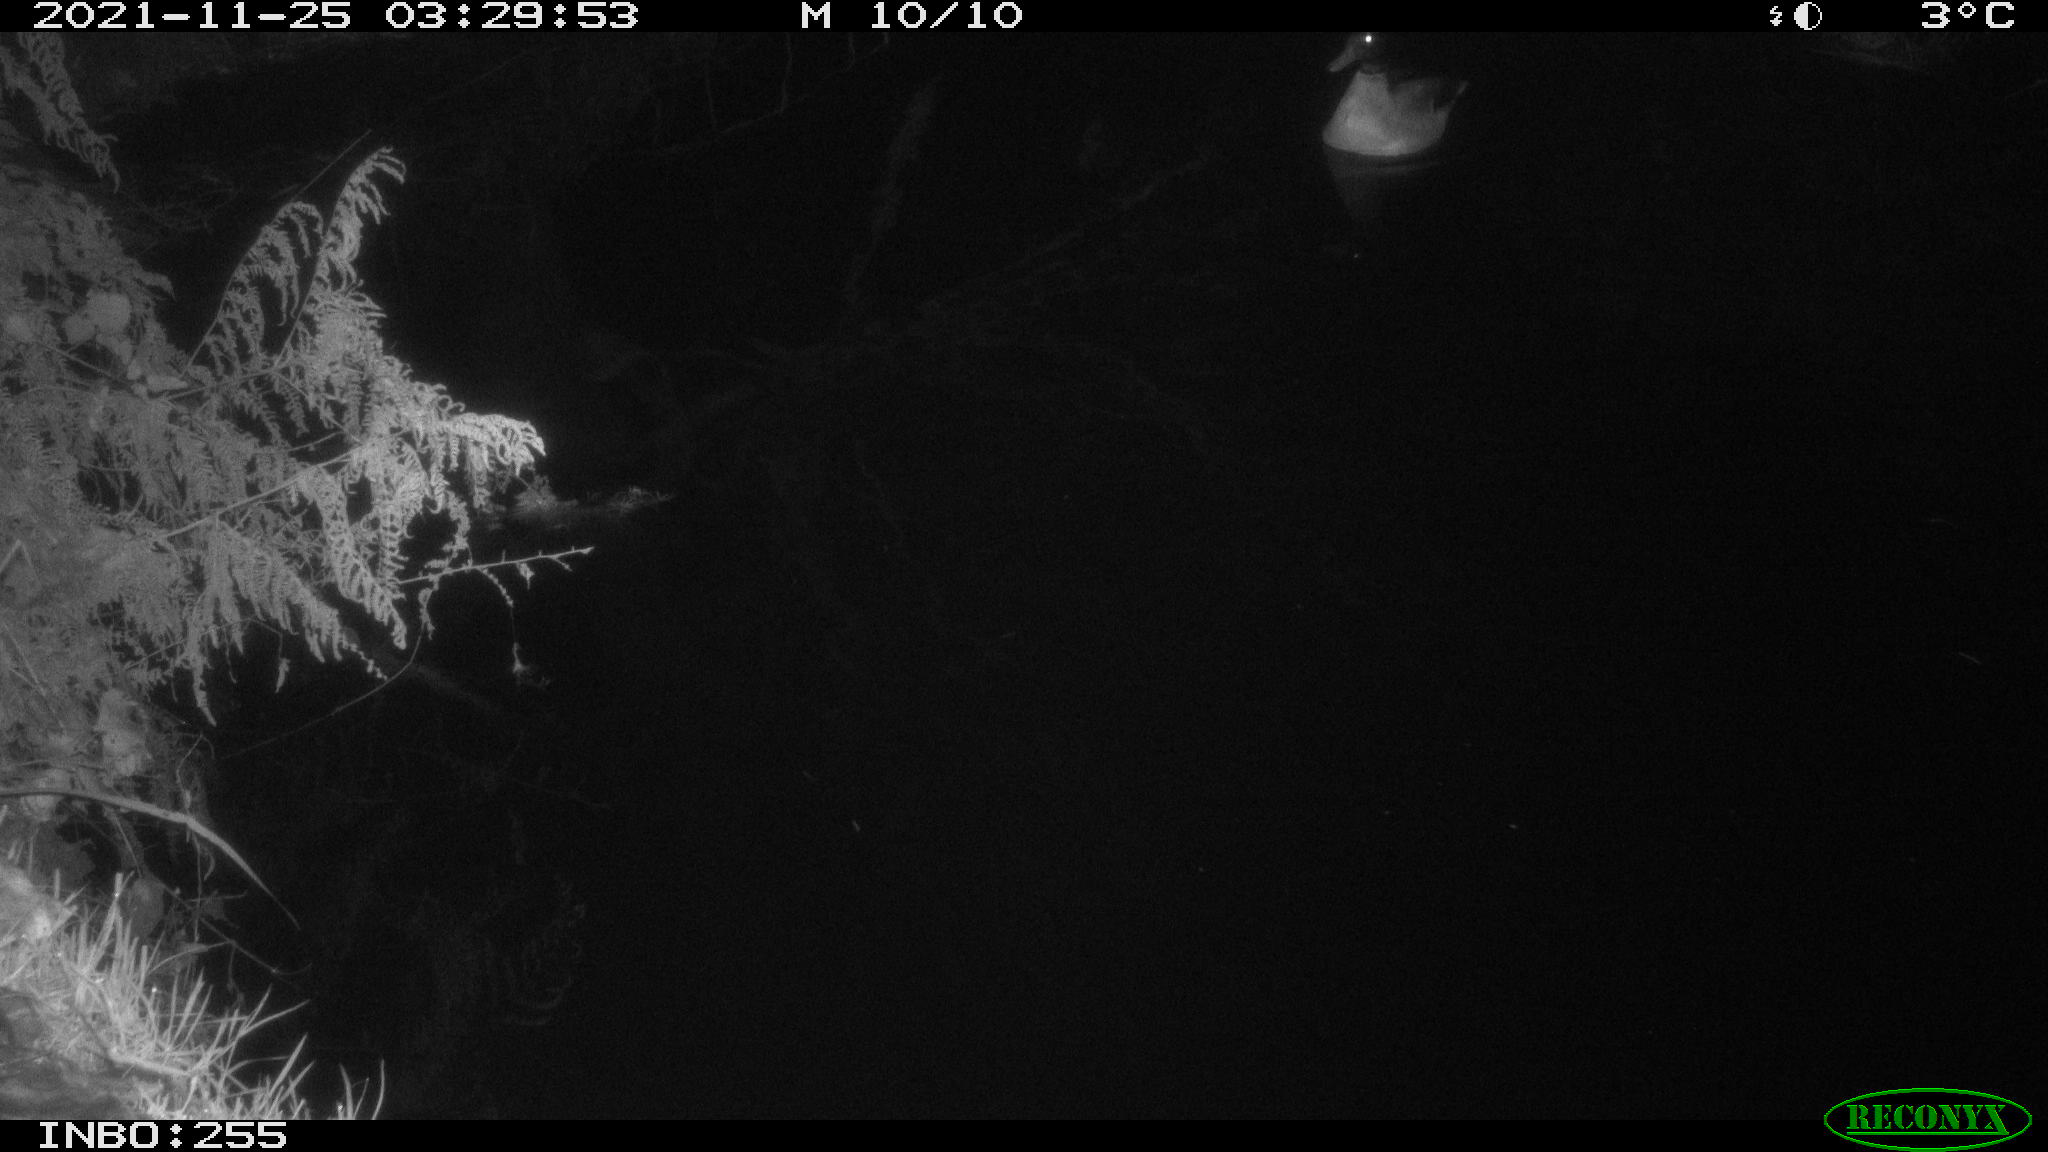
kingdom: Animalia
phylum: Chordata
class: Aves
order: Anseriformes
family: Anatidae
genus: Anas
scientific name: Anas platyrhynchos
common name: Mallard
